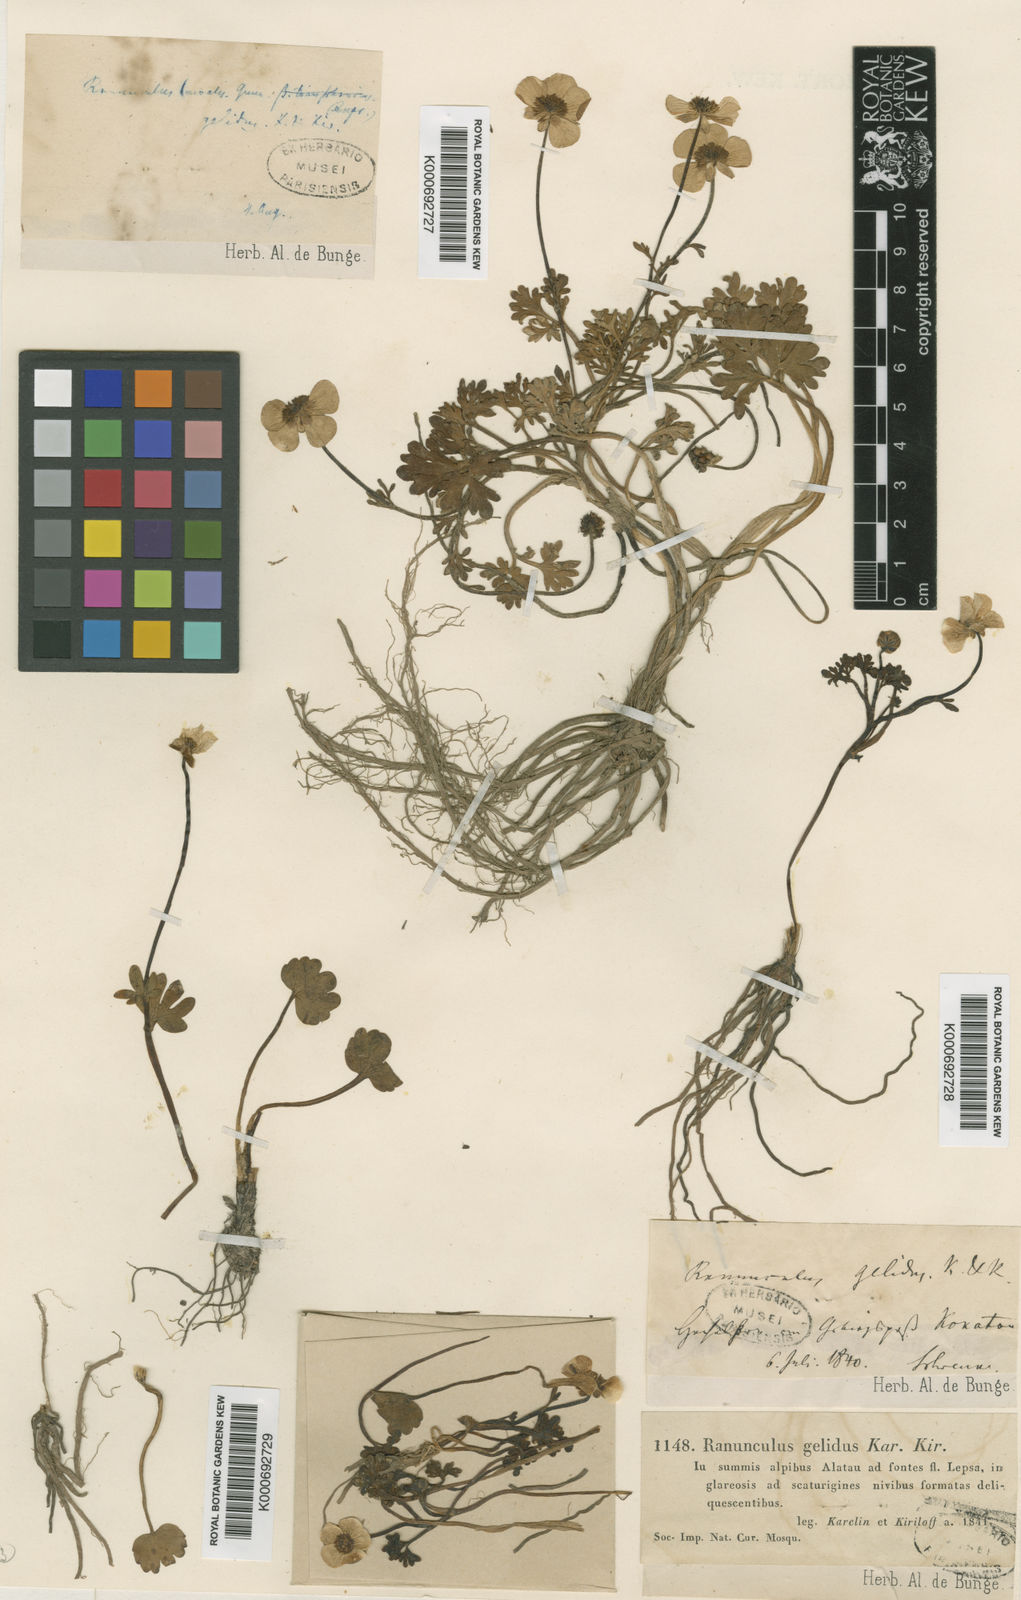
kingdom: Plantae
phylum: Tracheophyta
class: Magnoliopsida
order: Ranunculales
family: Ranunculaceae
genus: Ranunculus
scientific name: Ranunculus karelinii
